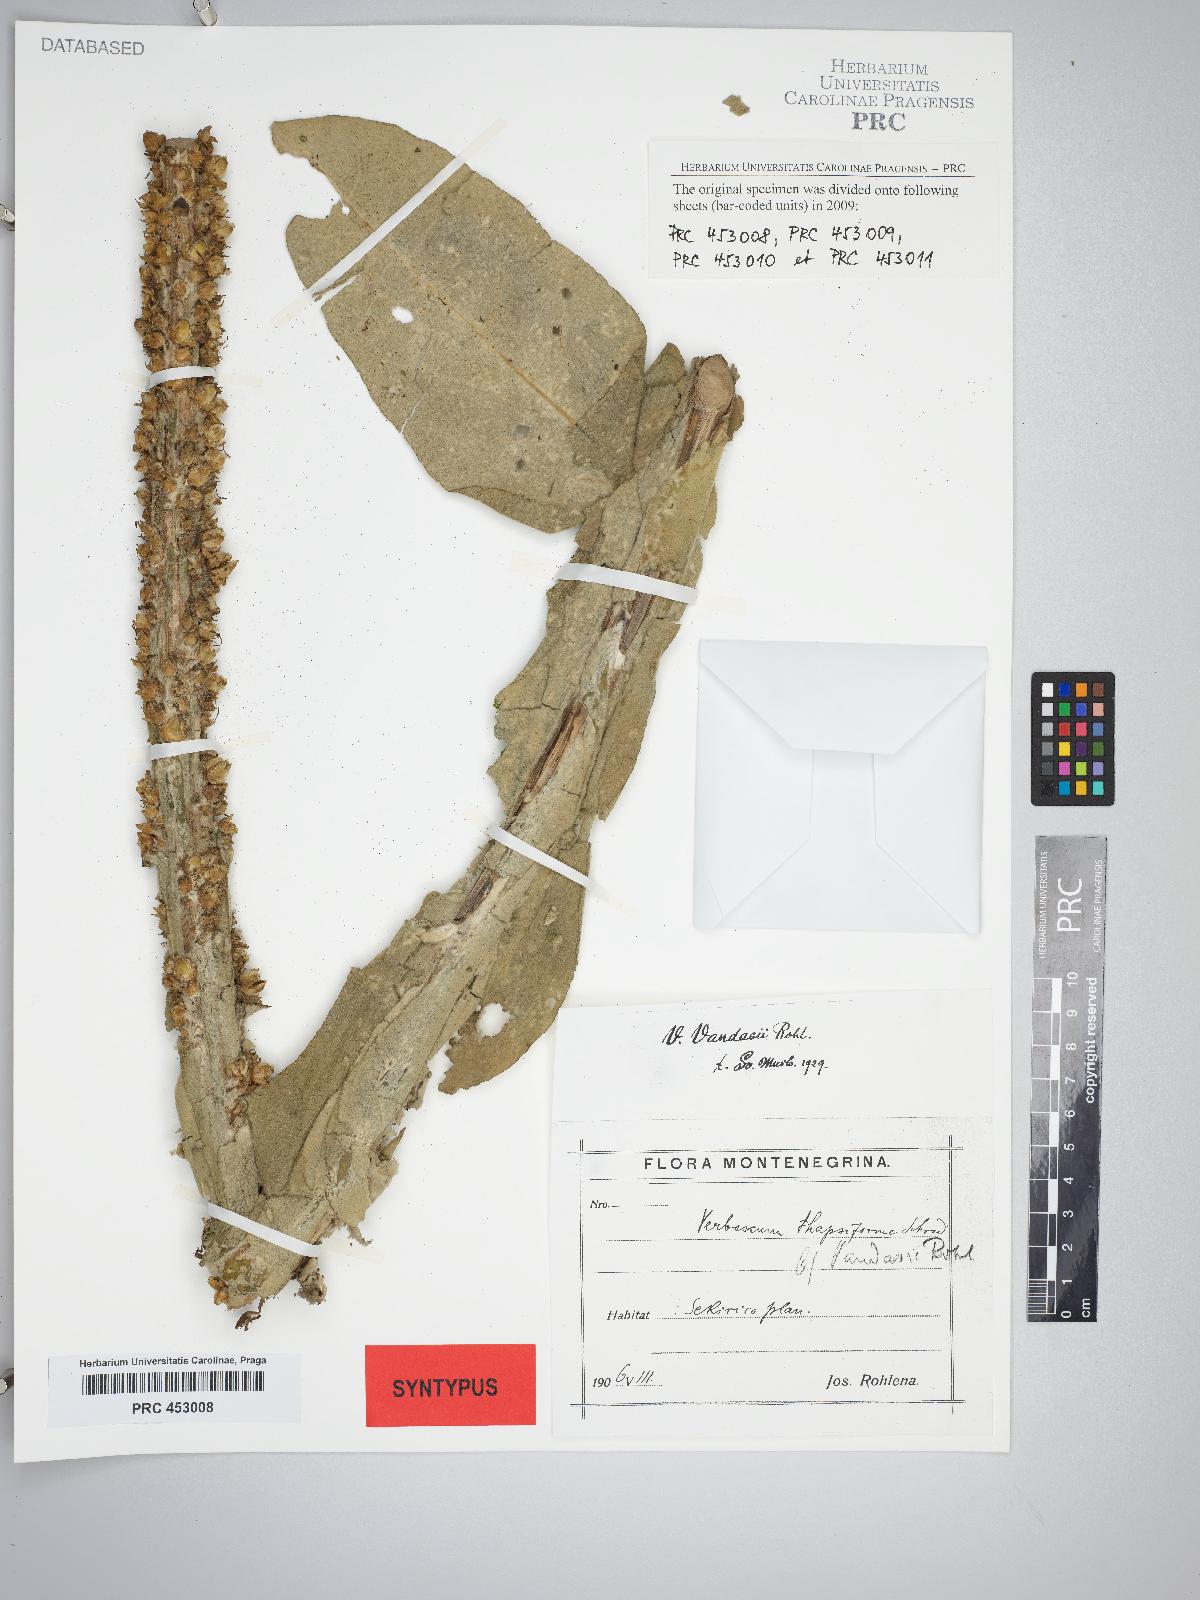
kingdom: Plantae
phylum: Tracheophyta
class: Magnoliopsida
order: Lamiales
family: Scrophulariaceae
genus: Verbascum
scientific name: Verbascum vandasii
